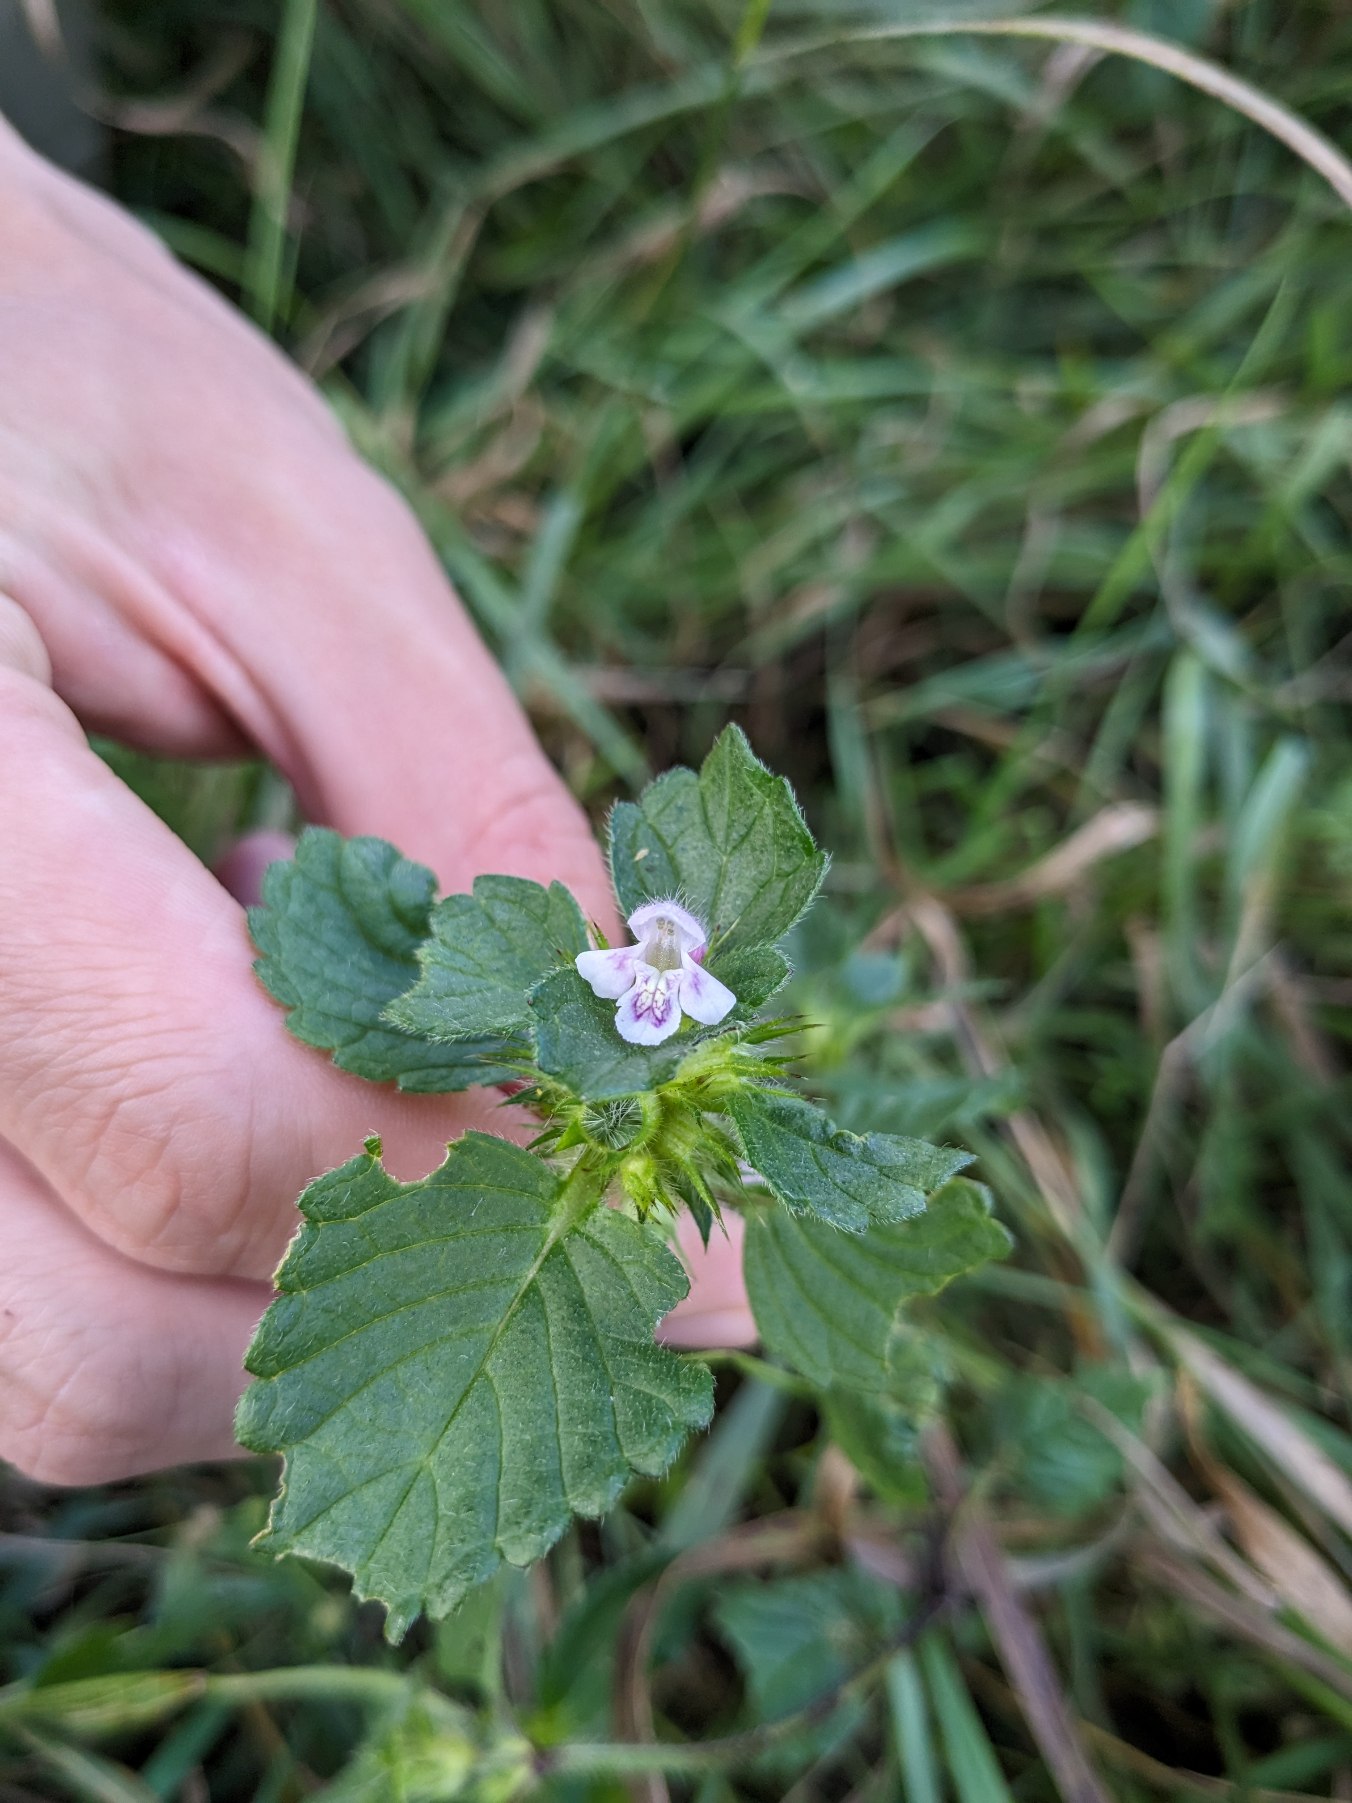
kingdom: Plantae
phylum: Tracheophyta
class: Magnoliopsida
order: Lamiales
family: Lamiaceae
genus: Galeopsis
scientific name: Galeopsis tetrahit
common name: Almindelig hanekro
